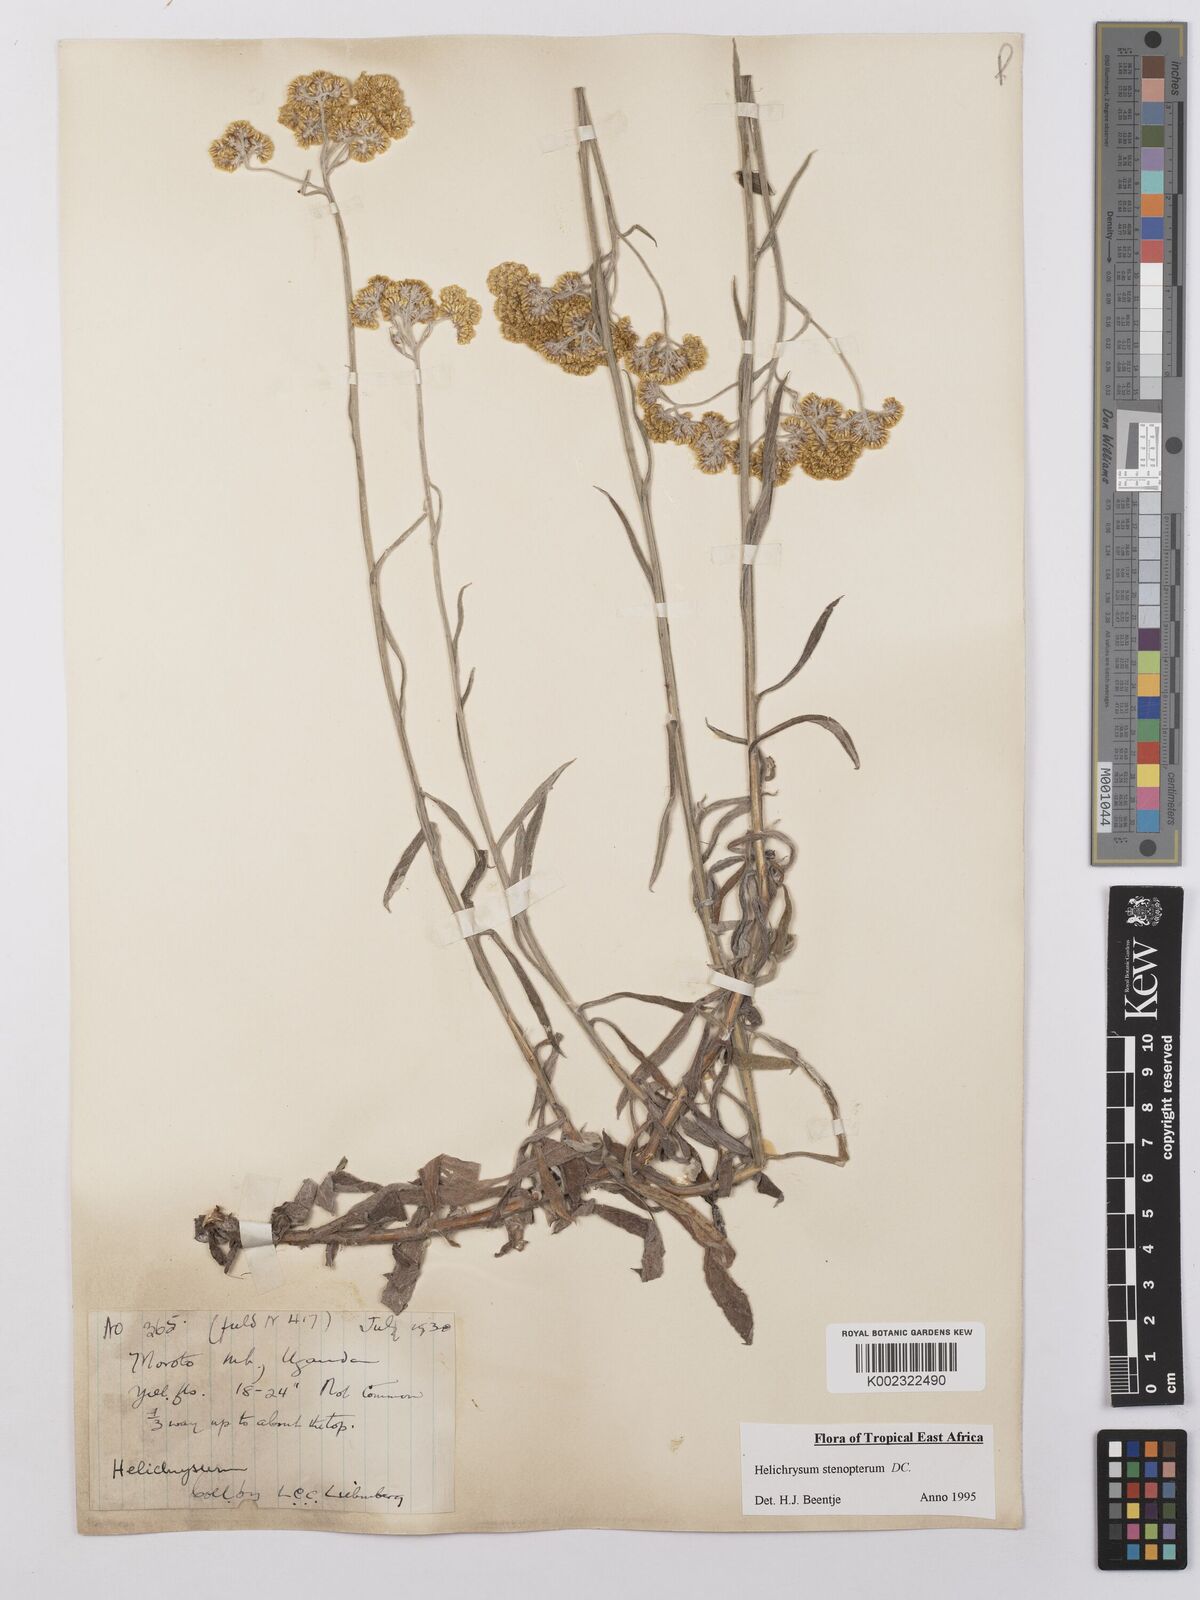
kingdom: Plantae
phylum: Tracheophyta
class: Magnoliopsida
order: Asterales
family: Asteraceae
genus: Helichrysum
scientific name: Helichrysum stenopterum
